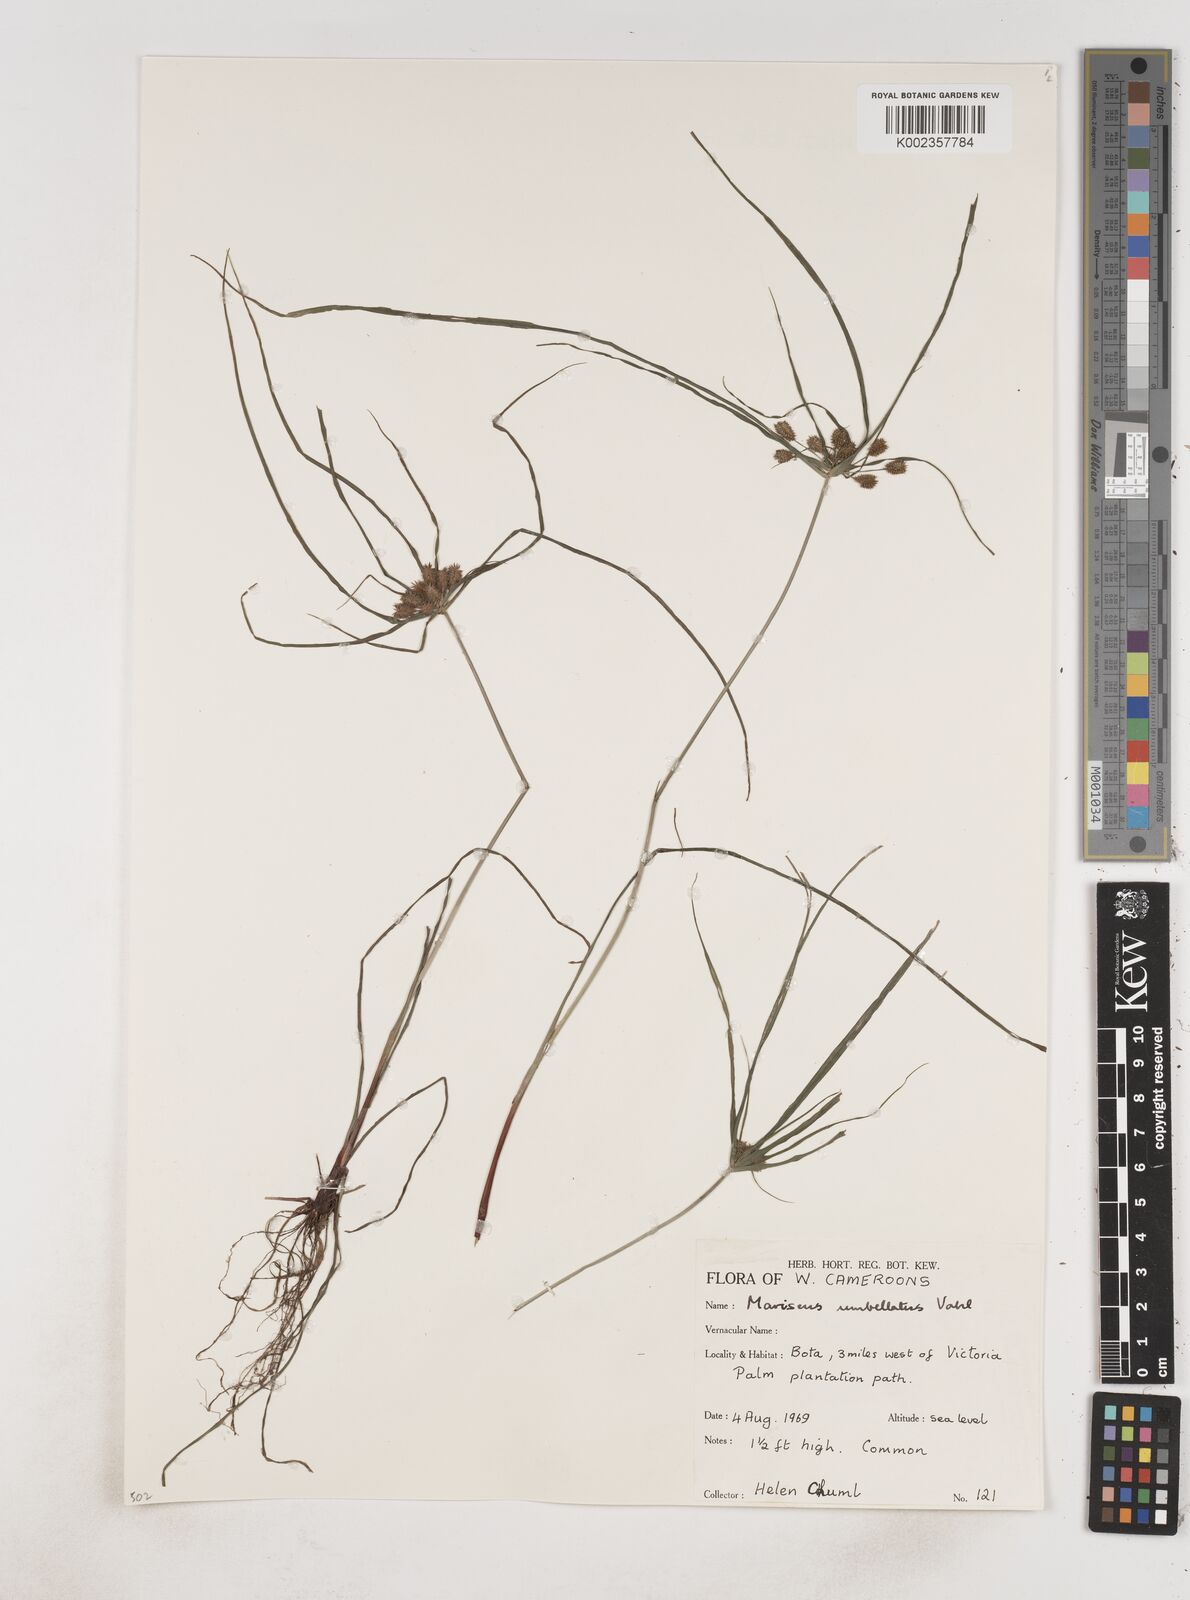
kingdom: Plantae
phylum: Tracheophyta
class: Liliopsida
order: Poales
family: Cyperaceae
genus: Cyperus
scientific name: Cyperus sublimis
